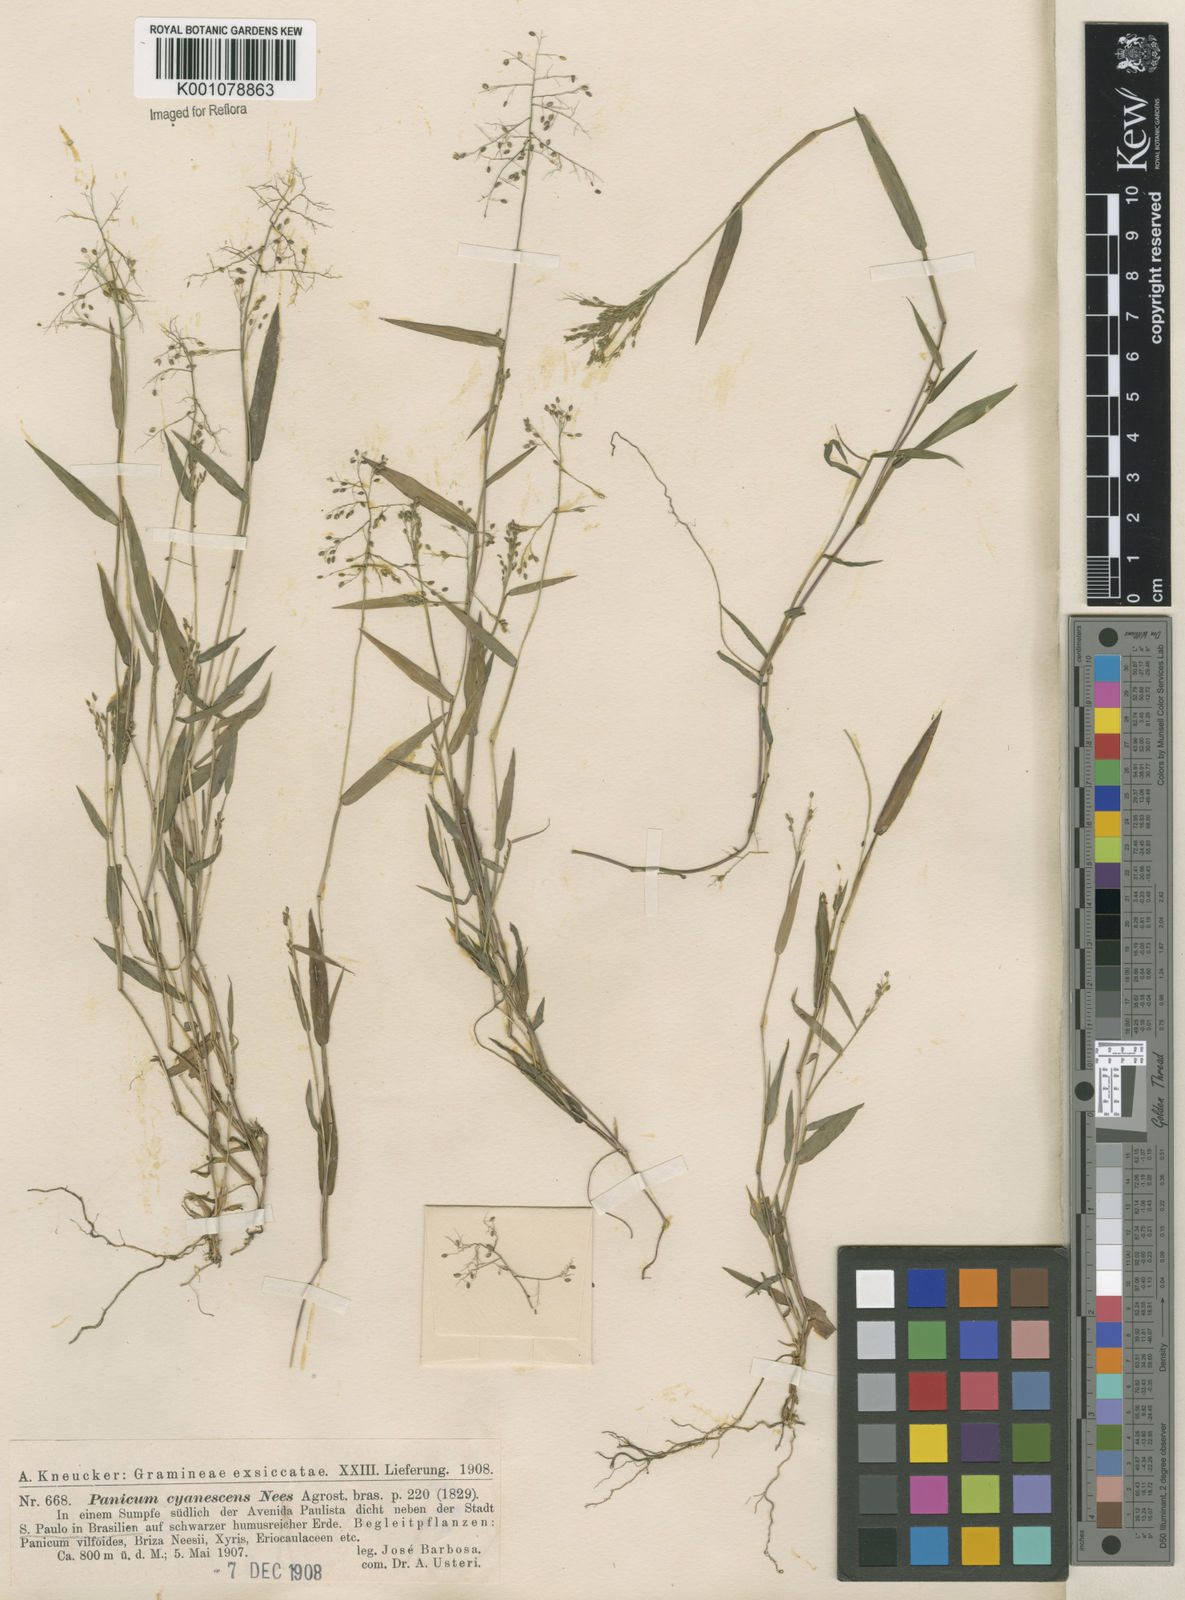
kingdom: Plantae
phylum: Tracheophyta
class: Liliopsida
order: Poales
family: Poaceae
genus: Trichanthecium
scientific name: Trichanthecium parvifolium
